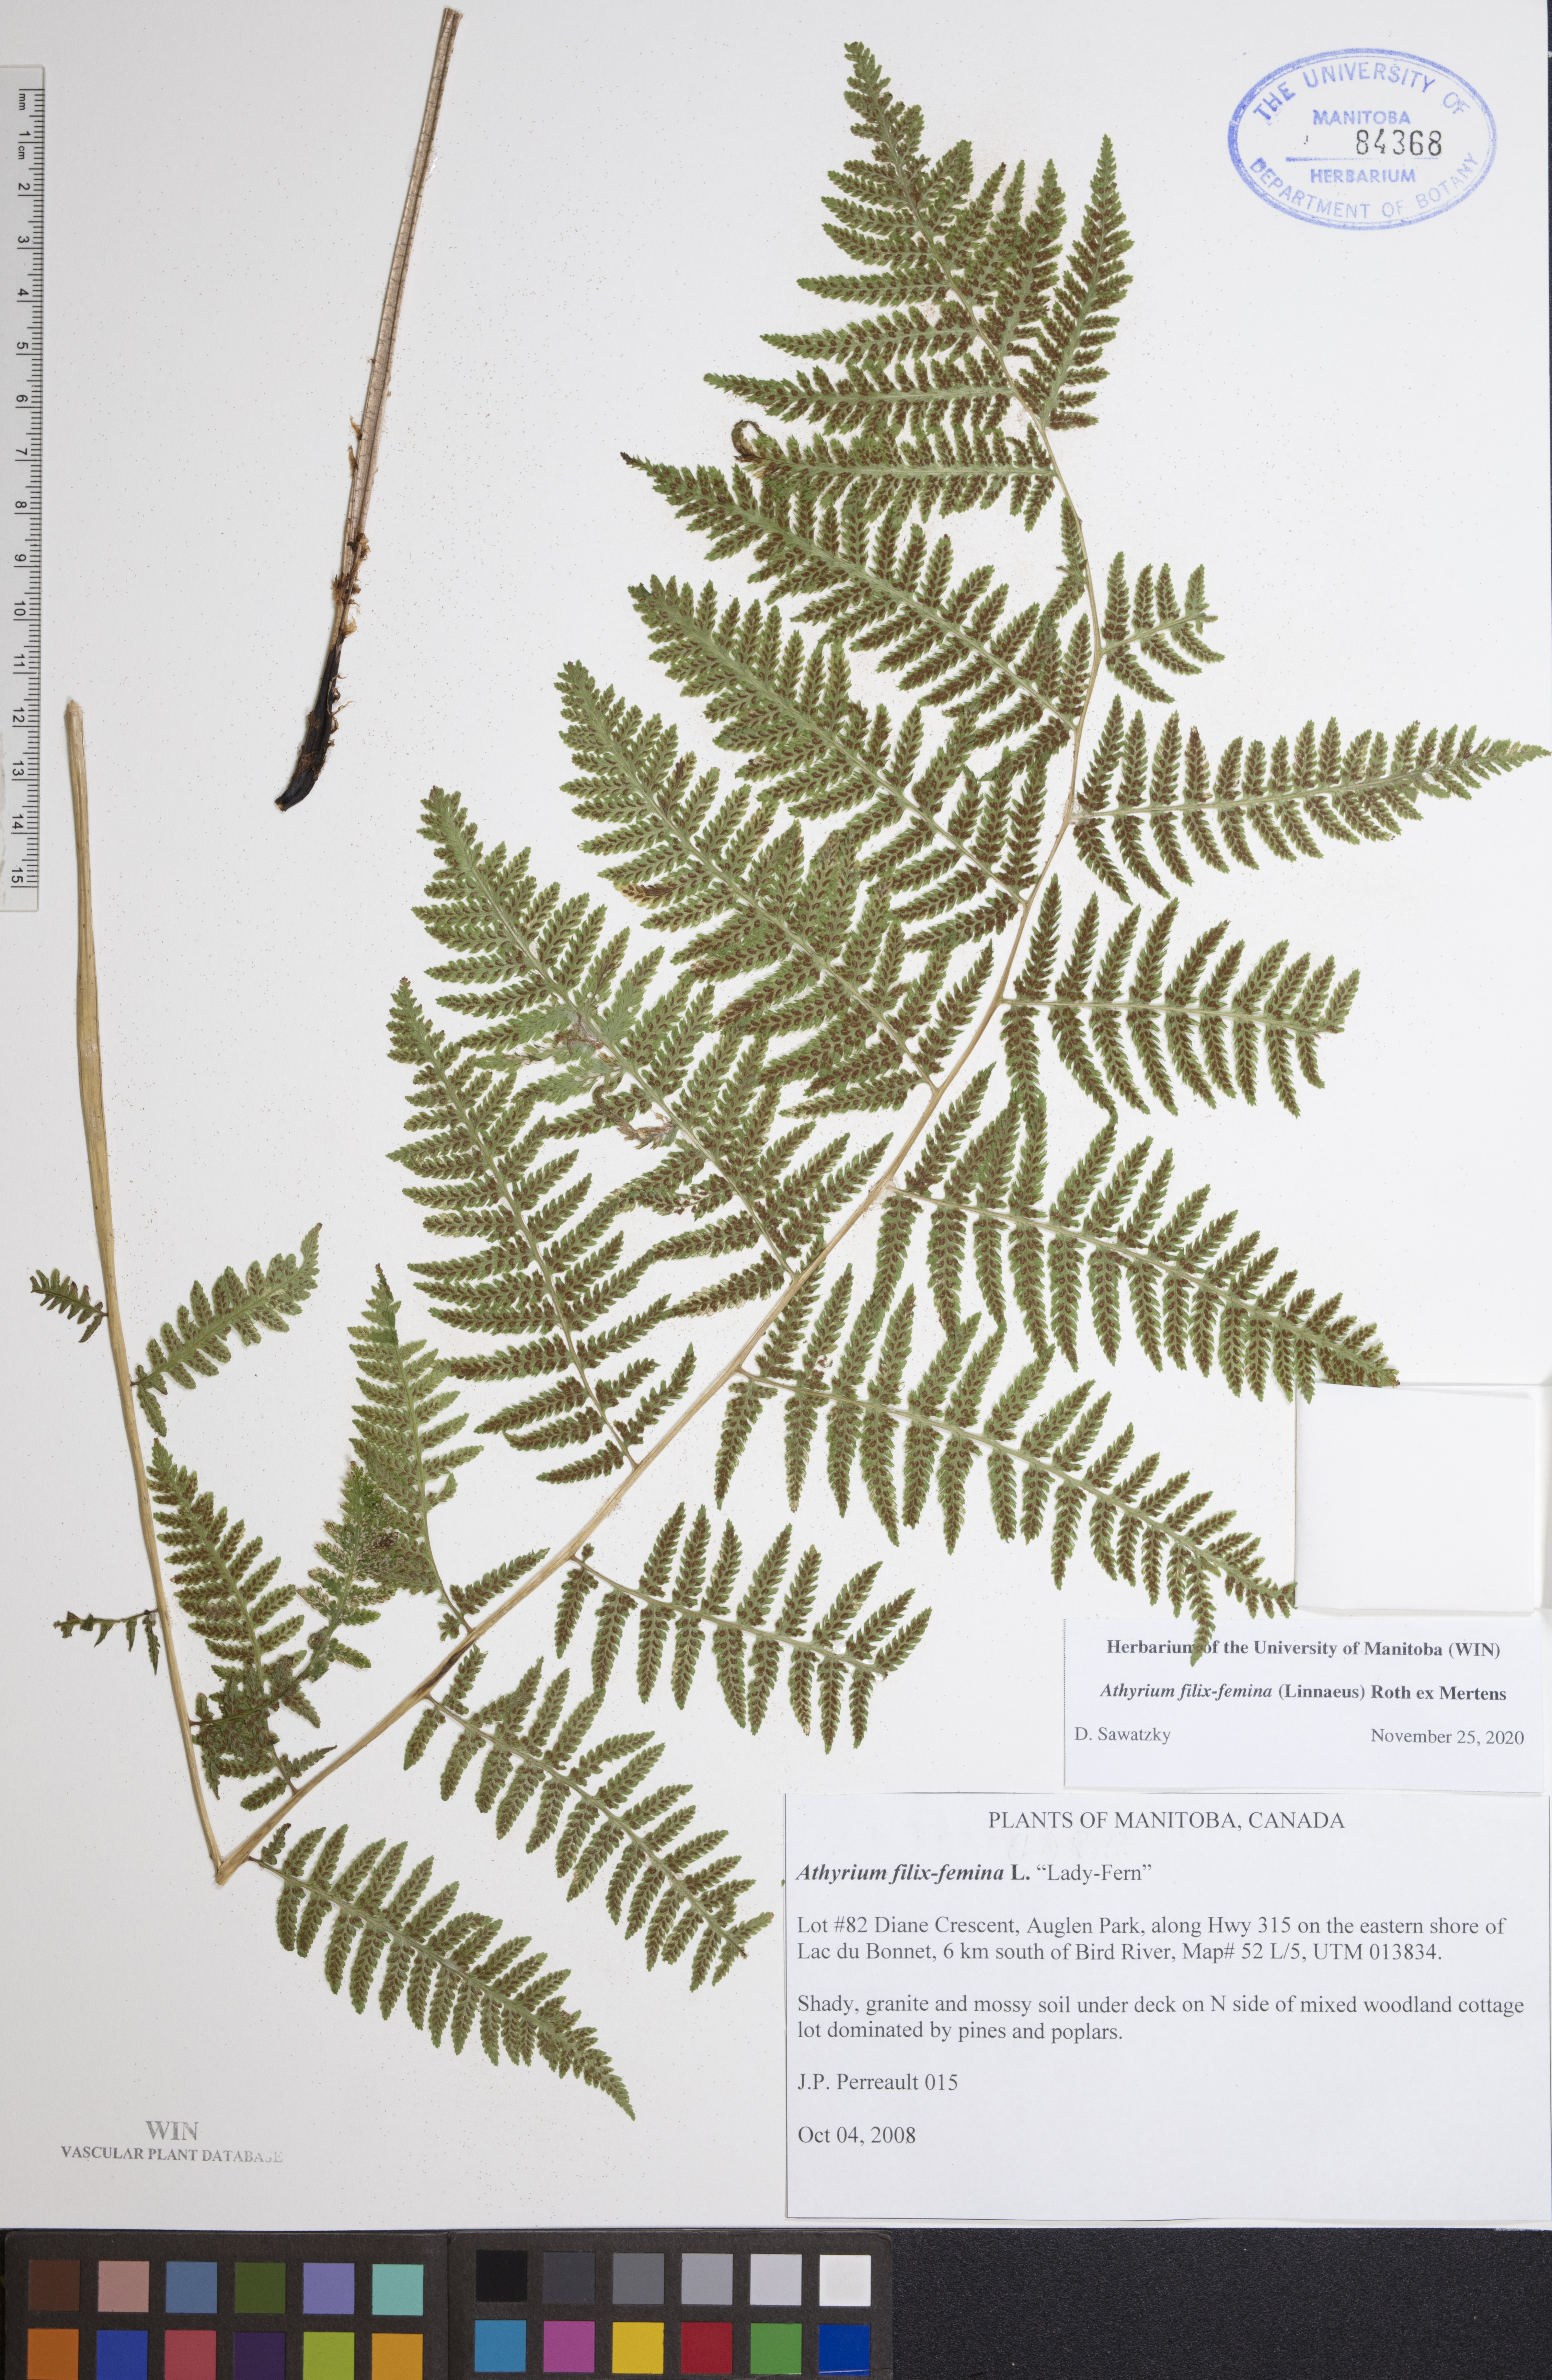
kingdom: Plantae
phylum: Tracheophyta
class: Polypodiopsida
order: Polypodiales
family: Athyriaceae
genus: Athyrium
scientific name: Athyrium filix-femina
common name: Lady fern
